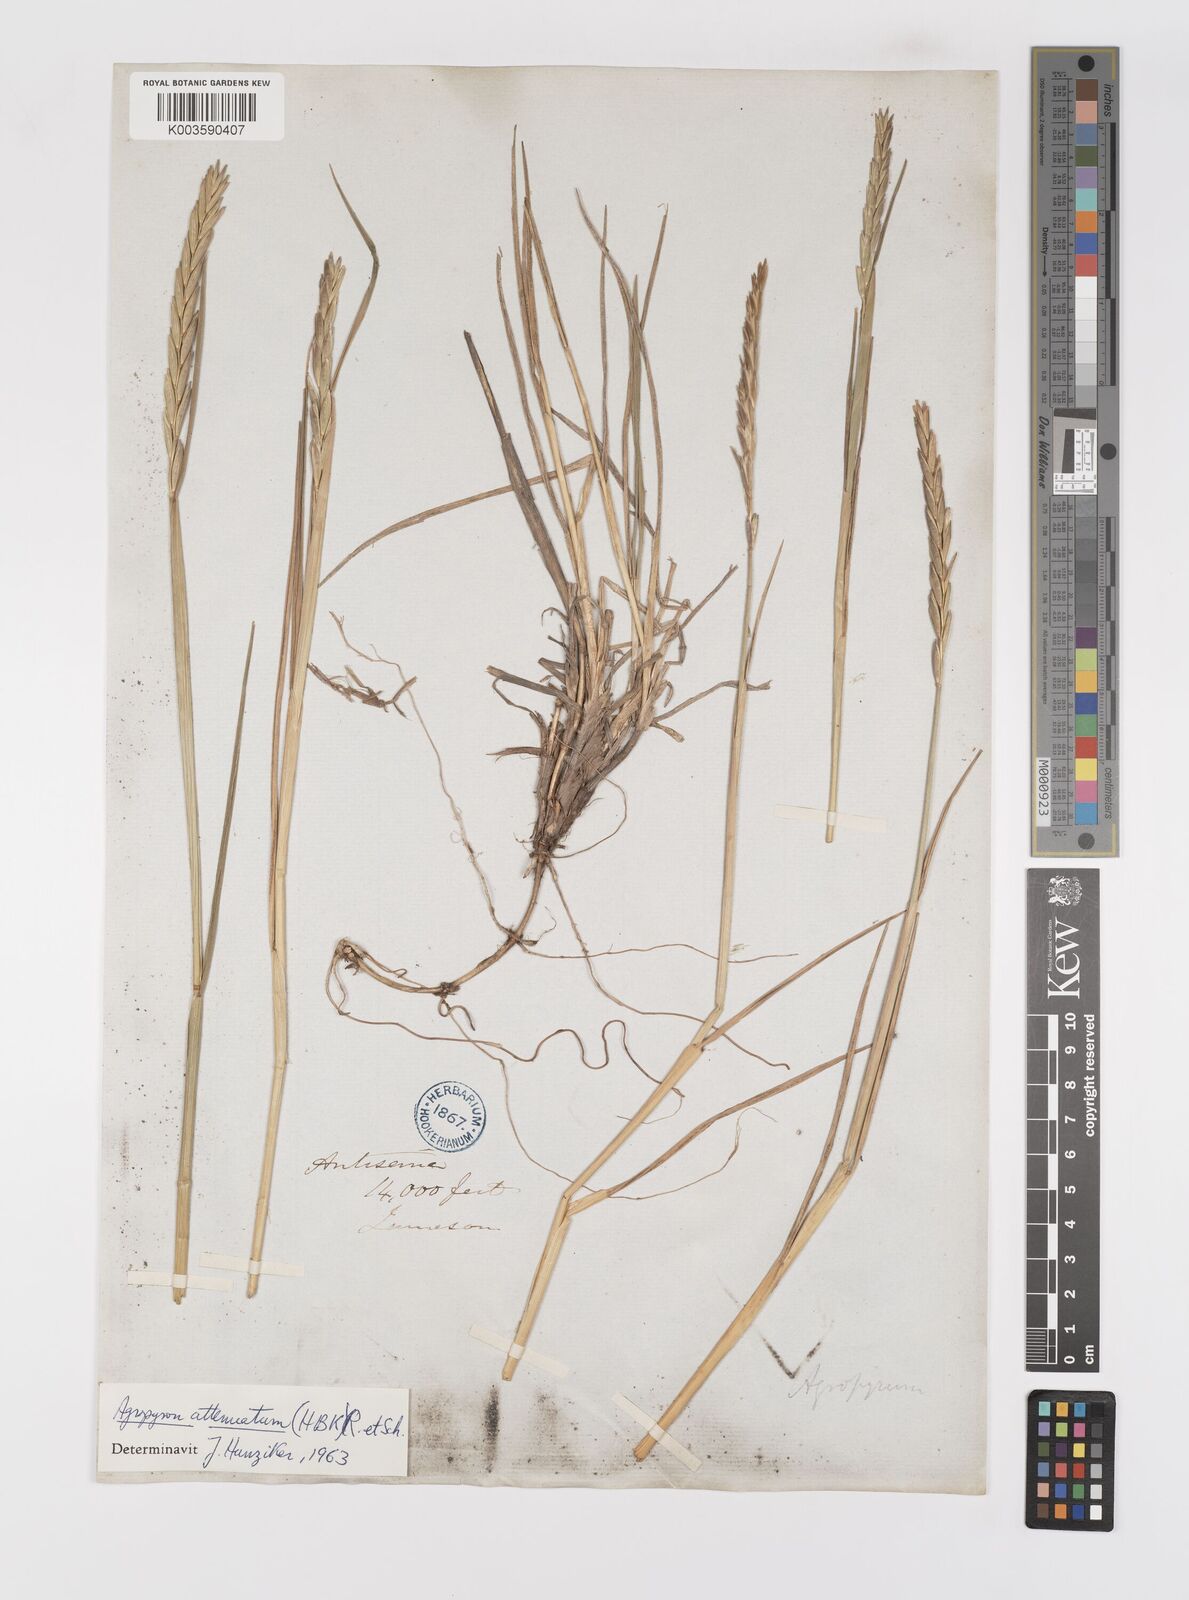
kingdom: Plantae
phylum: Tracheophyta
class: Liliopsida
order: Poales
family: Poaceae
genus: Elymus
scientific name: Elymus cordilleranus
